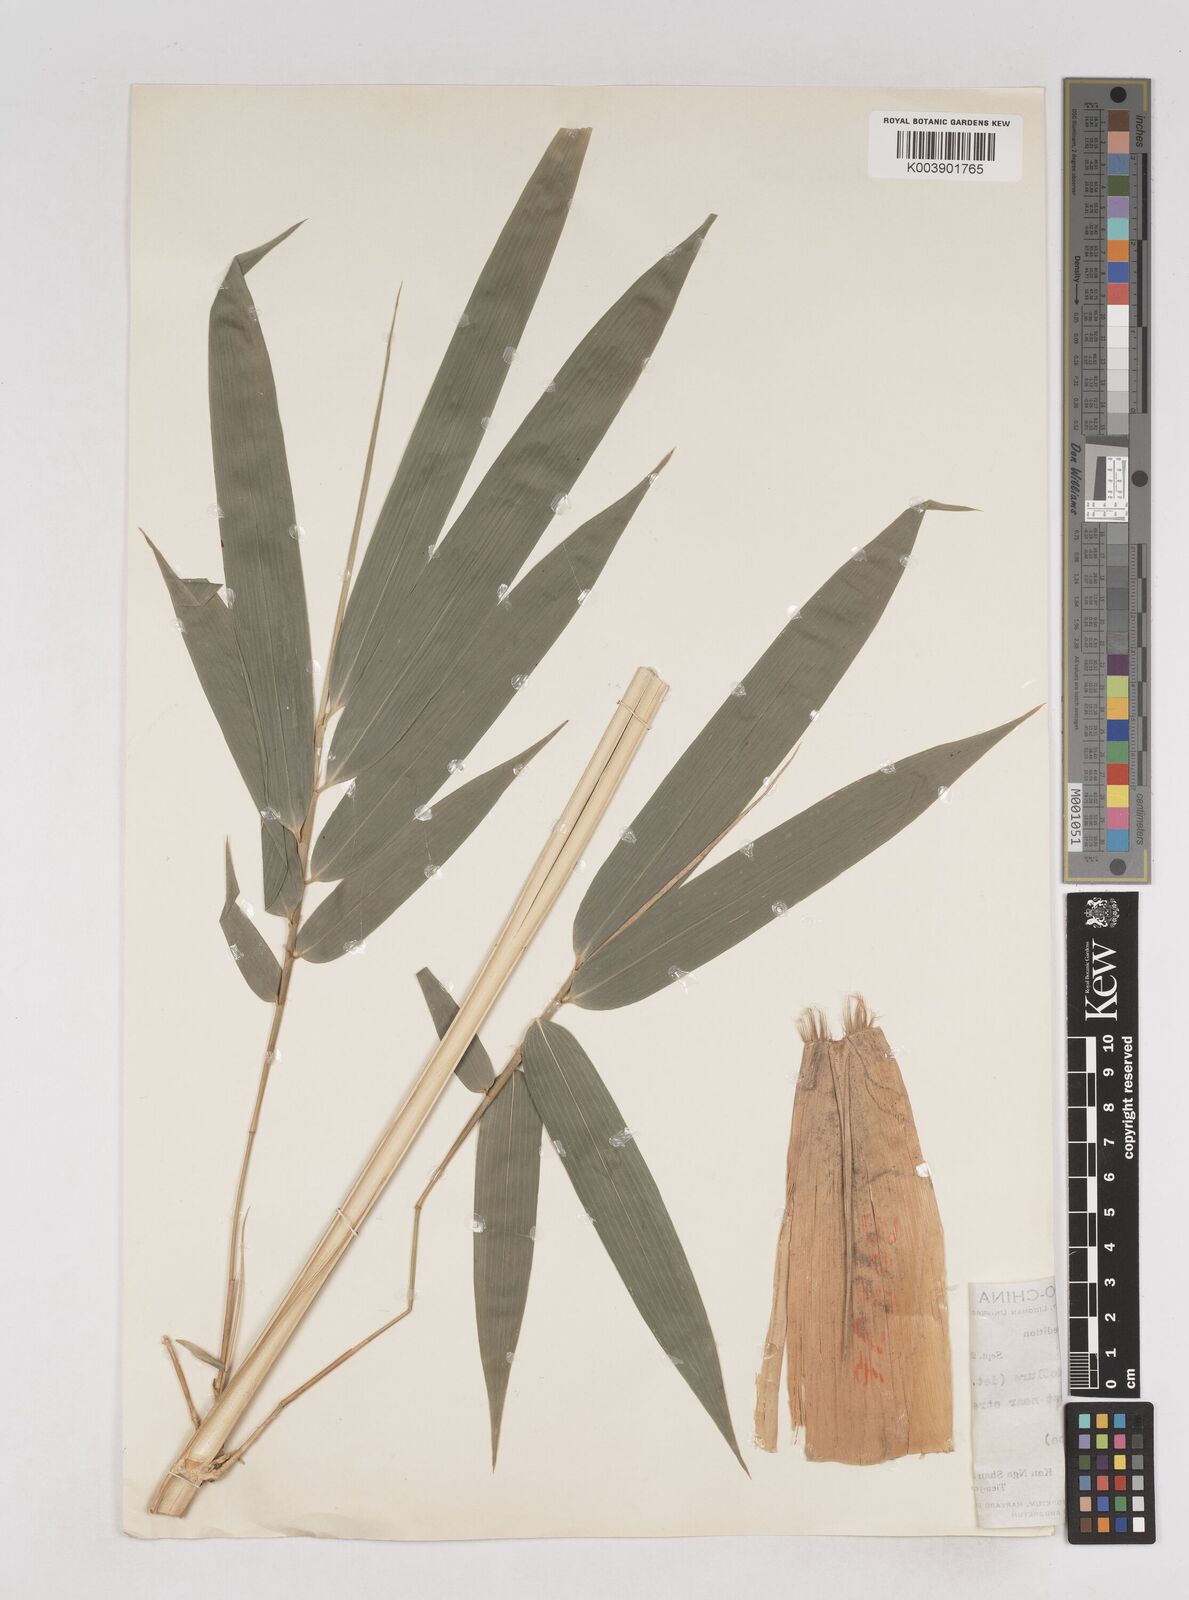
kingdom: Plantae
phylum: Tracheophyta
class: Liliopsida
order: Poales
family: Poaceae
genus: Schizostachyum
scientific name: Schizostachyum pseudolima
